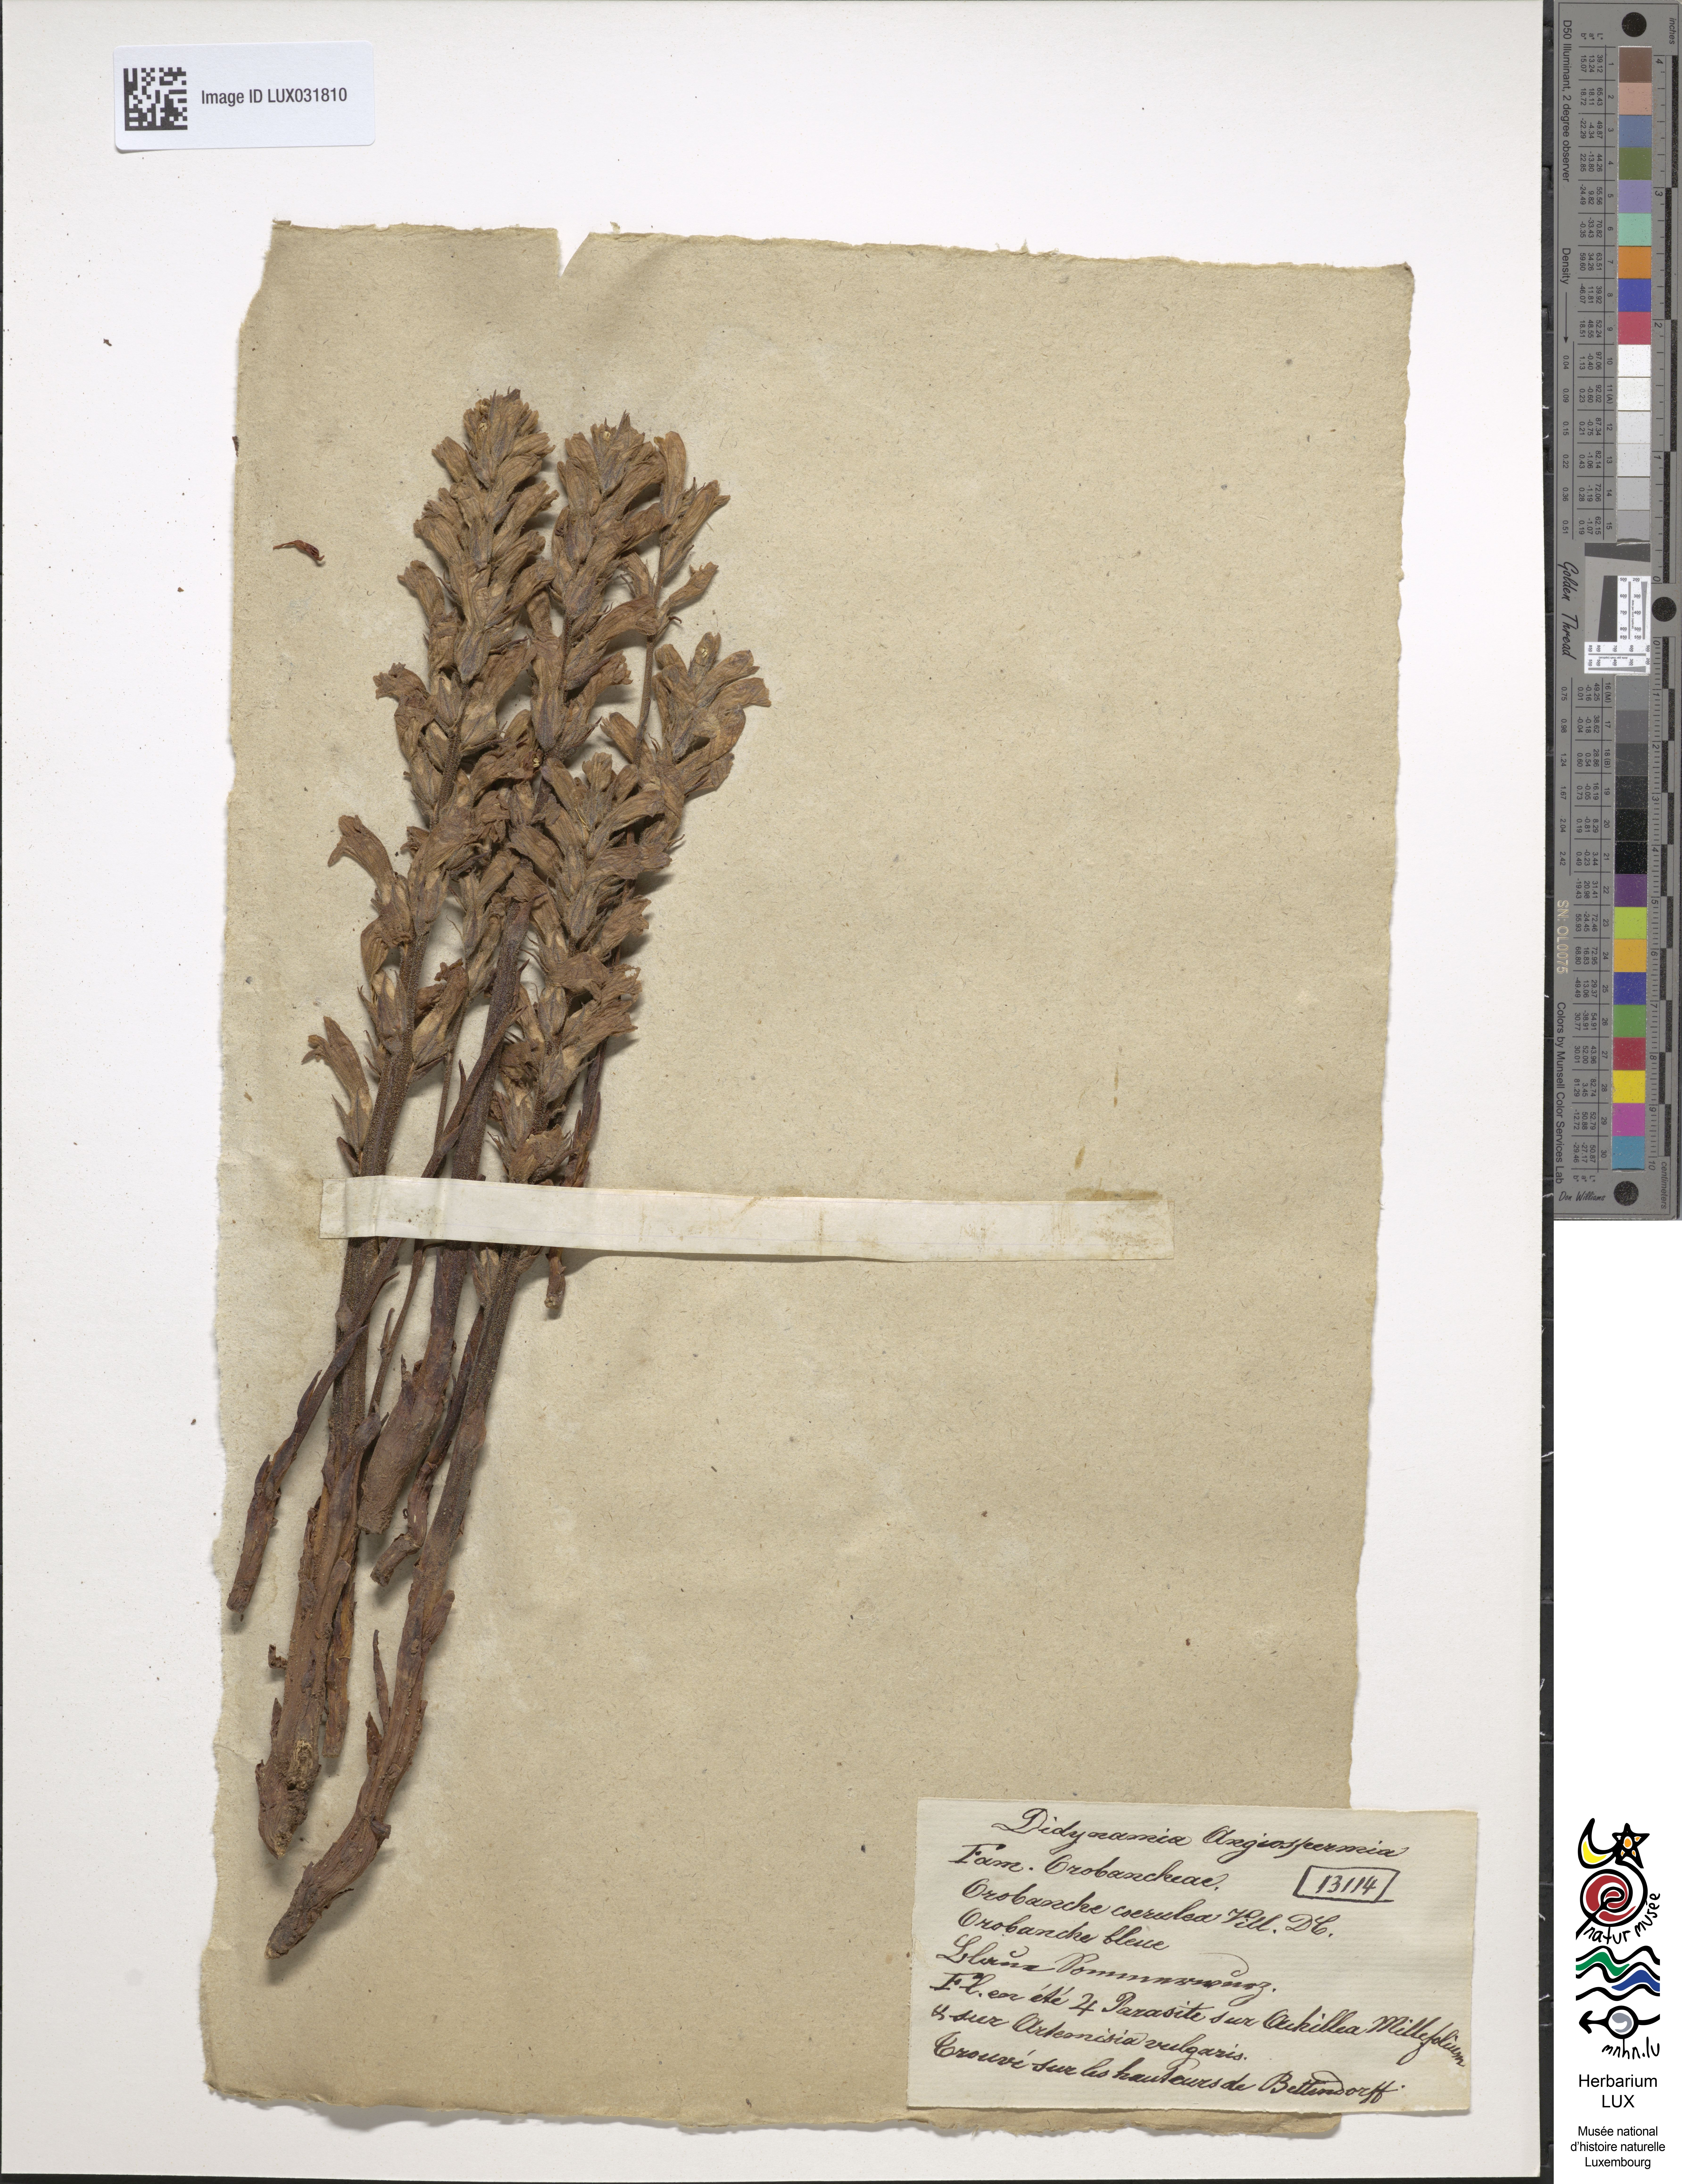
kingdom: Plantae
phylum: Tracheophyta
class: Magnoliopsida
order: Lamiales
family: Orobanchaceae
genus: Phelipanche
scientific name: Phelipanche purpurea
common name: Purple broomrape
